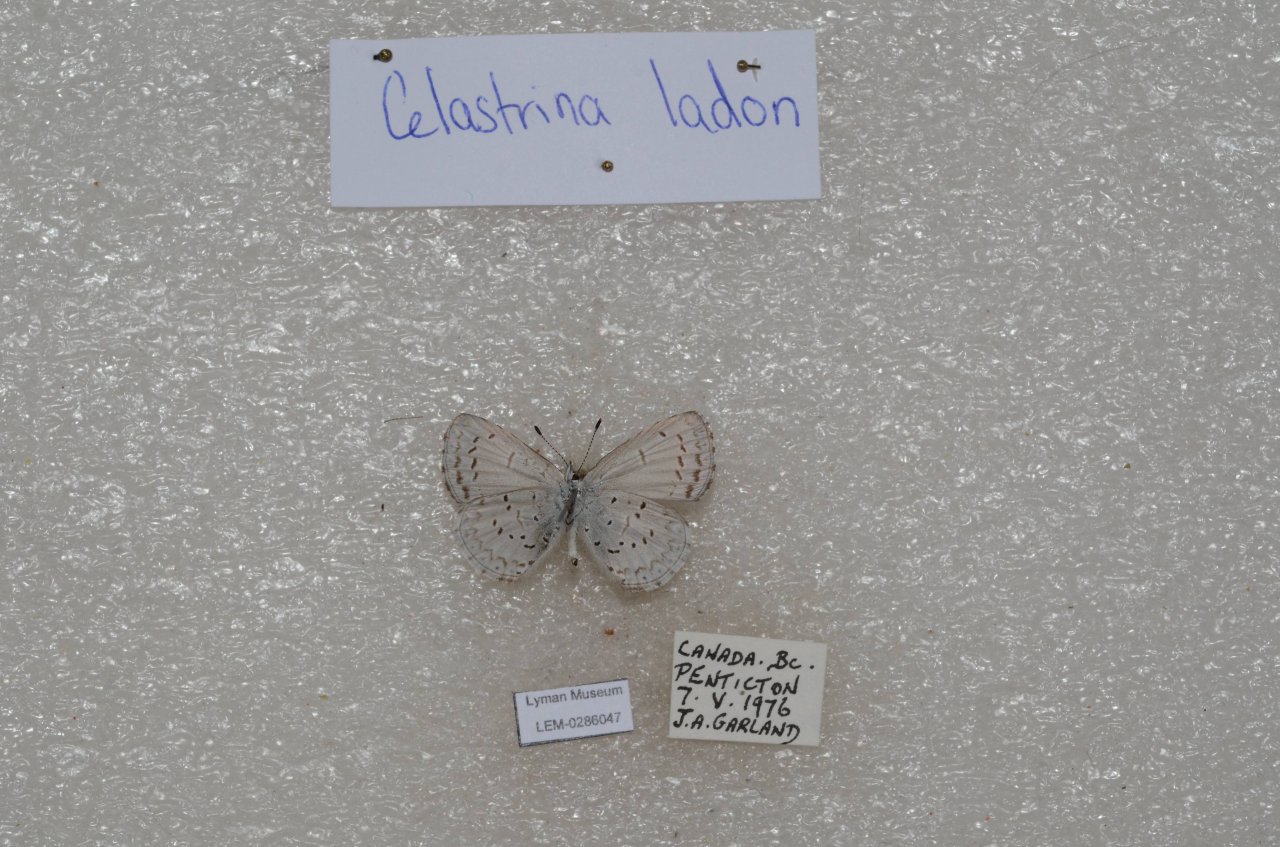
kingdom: Animalia
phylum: Arthropoda
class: Insecta
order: Lepidoptera
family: Lycaenidae
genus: Celastrina
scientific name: Celastrina
